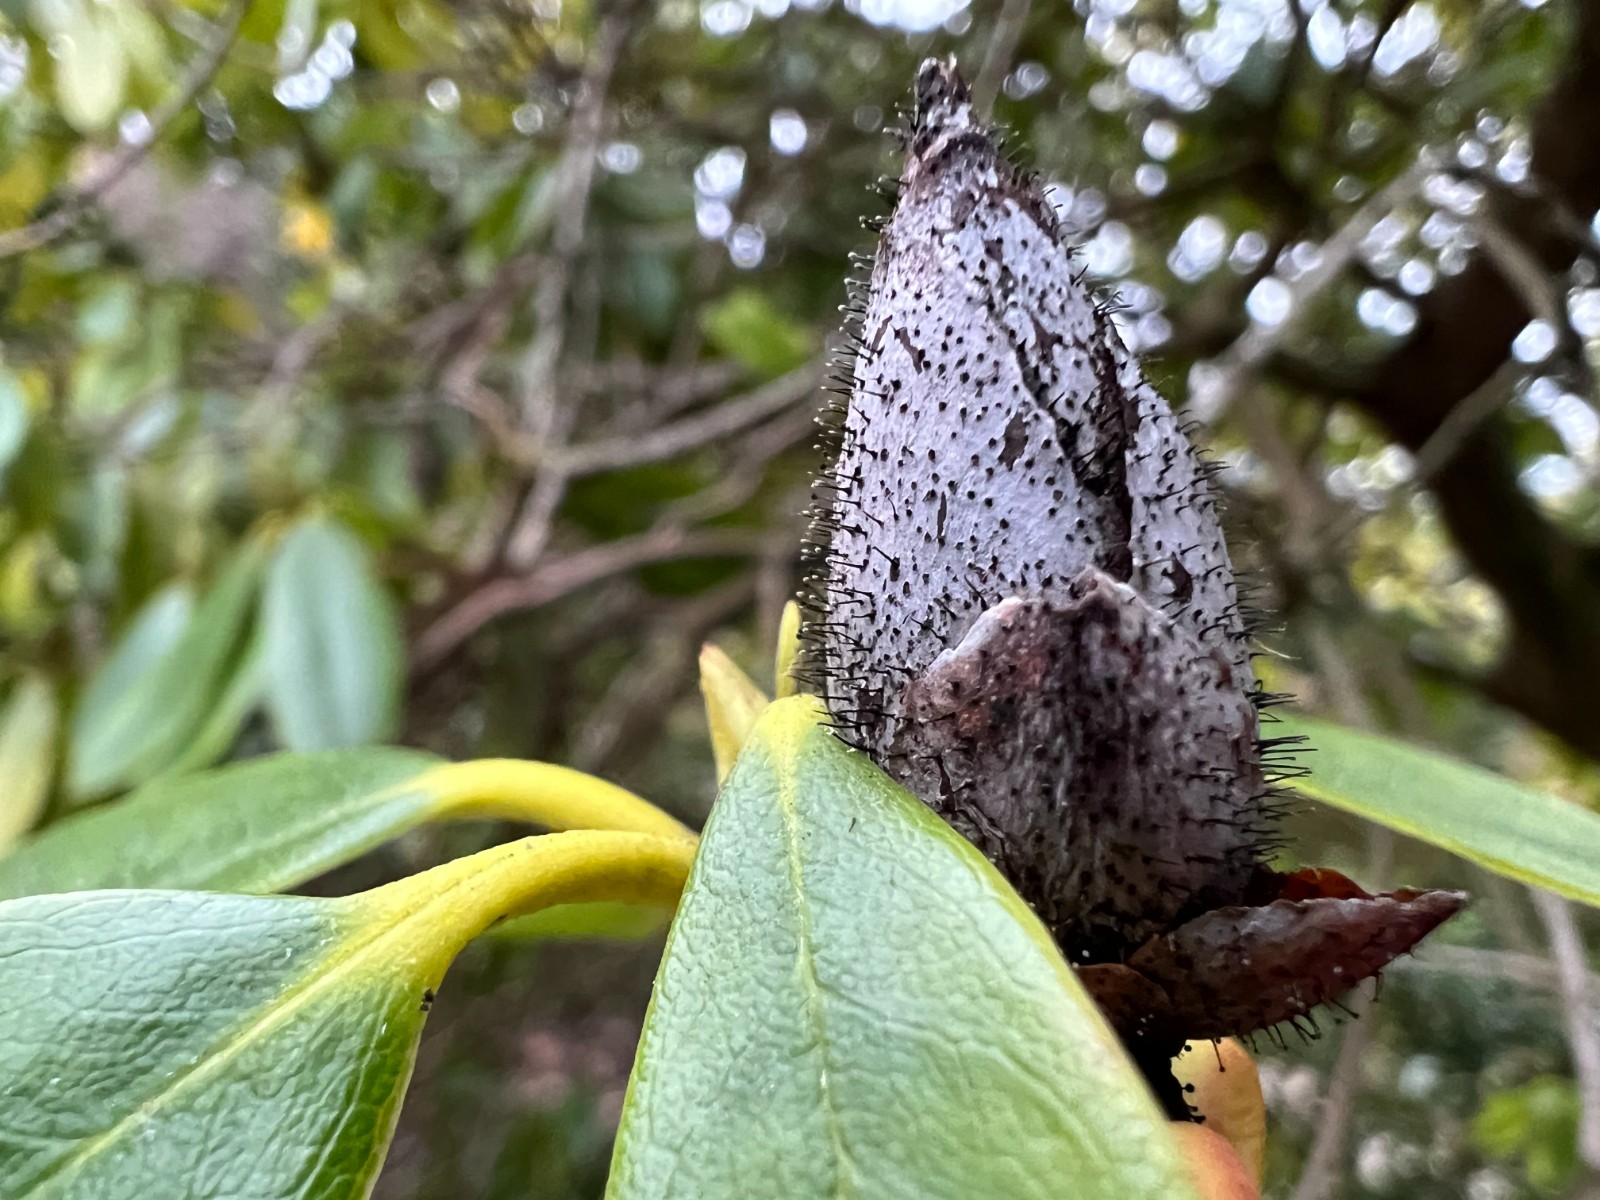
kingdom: Fungi
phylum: Ascomycota
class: Dothideomycetes
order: Pleosporales
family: Melanommataceae
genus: Seifertia
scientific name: Seifertia azaleae
